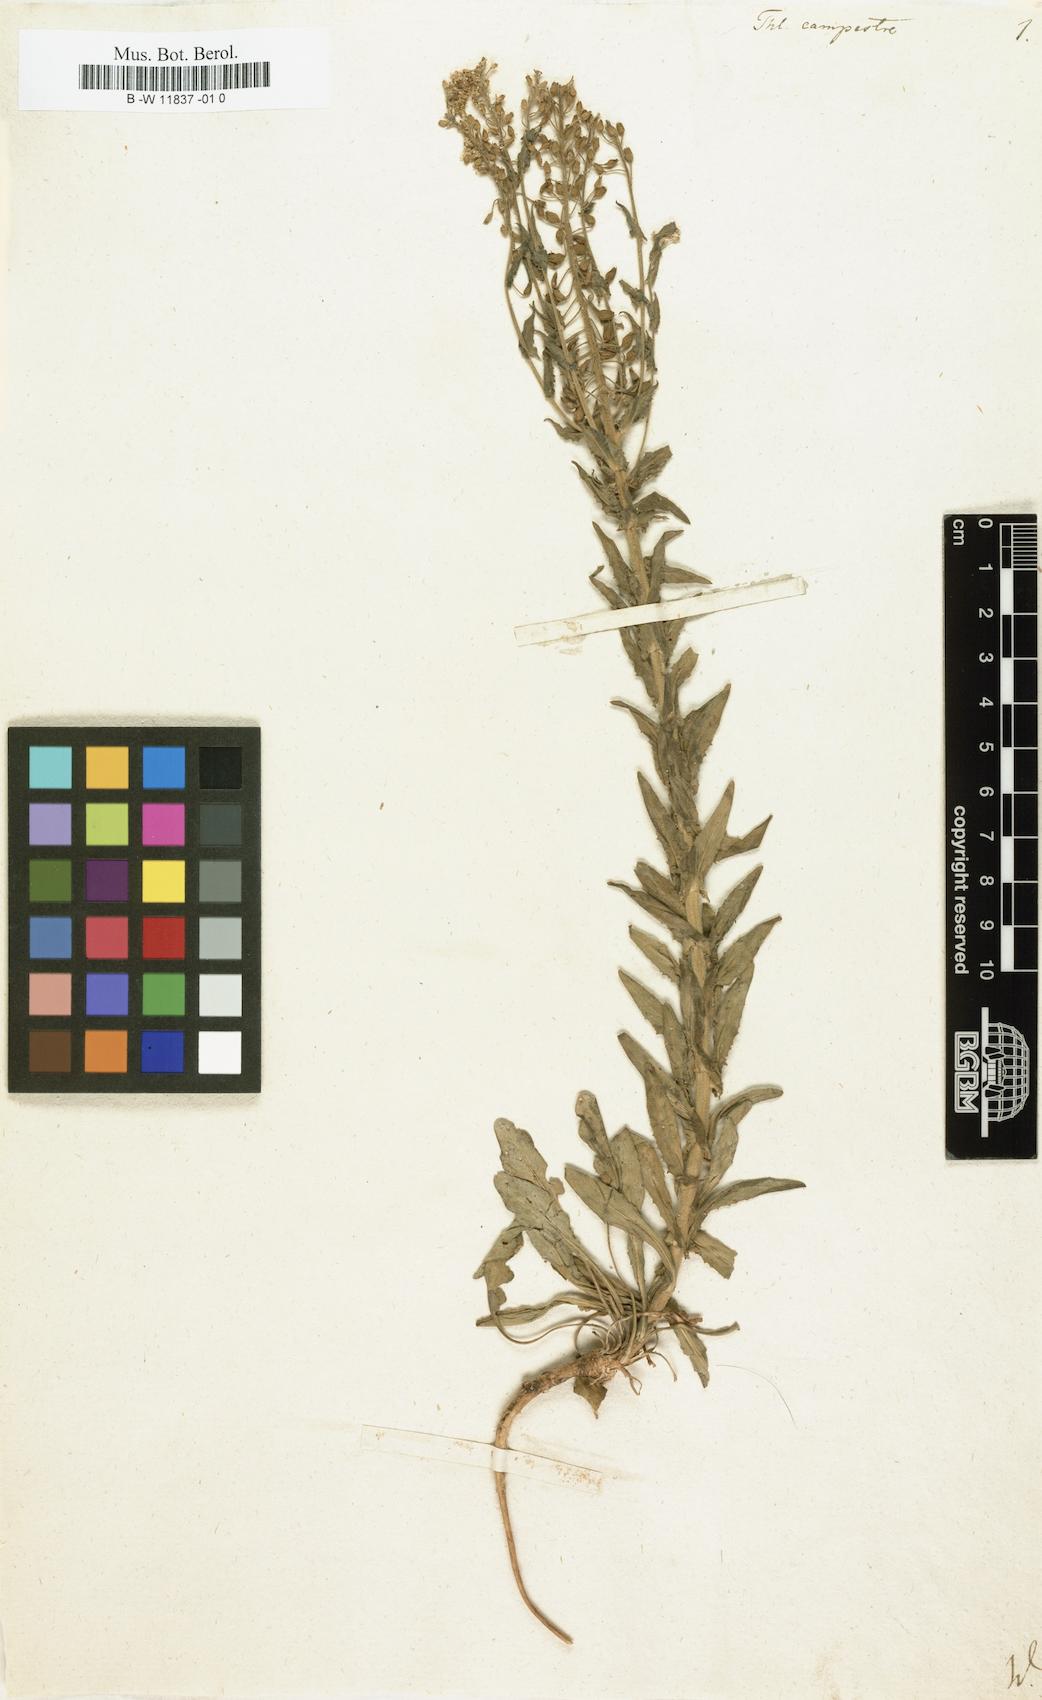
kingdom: Plantae
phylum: Tracheophyta
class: Magnoliopsida
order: Brassicales
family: Brassicaceae
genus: Lepidium
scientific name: Lepidium campestre
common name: Field pepperwort
